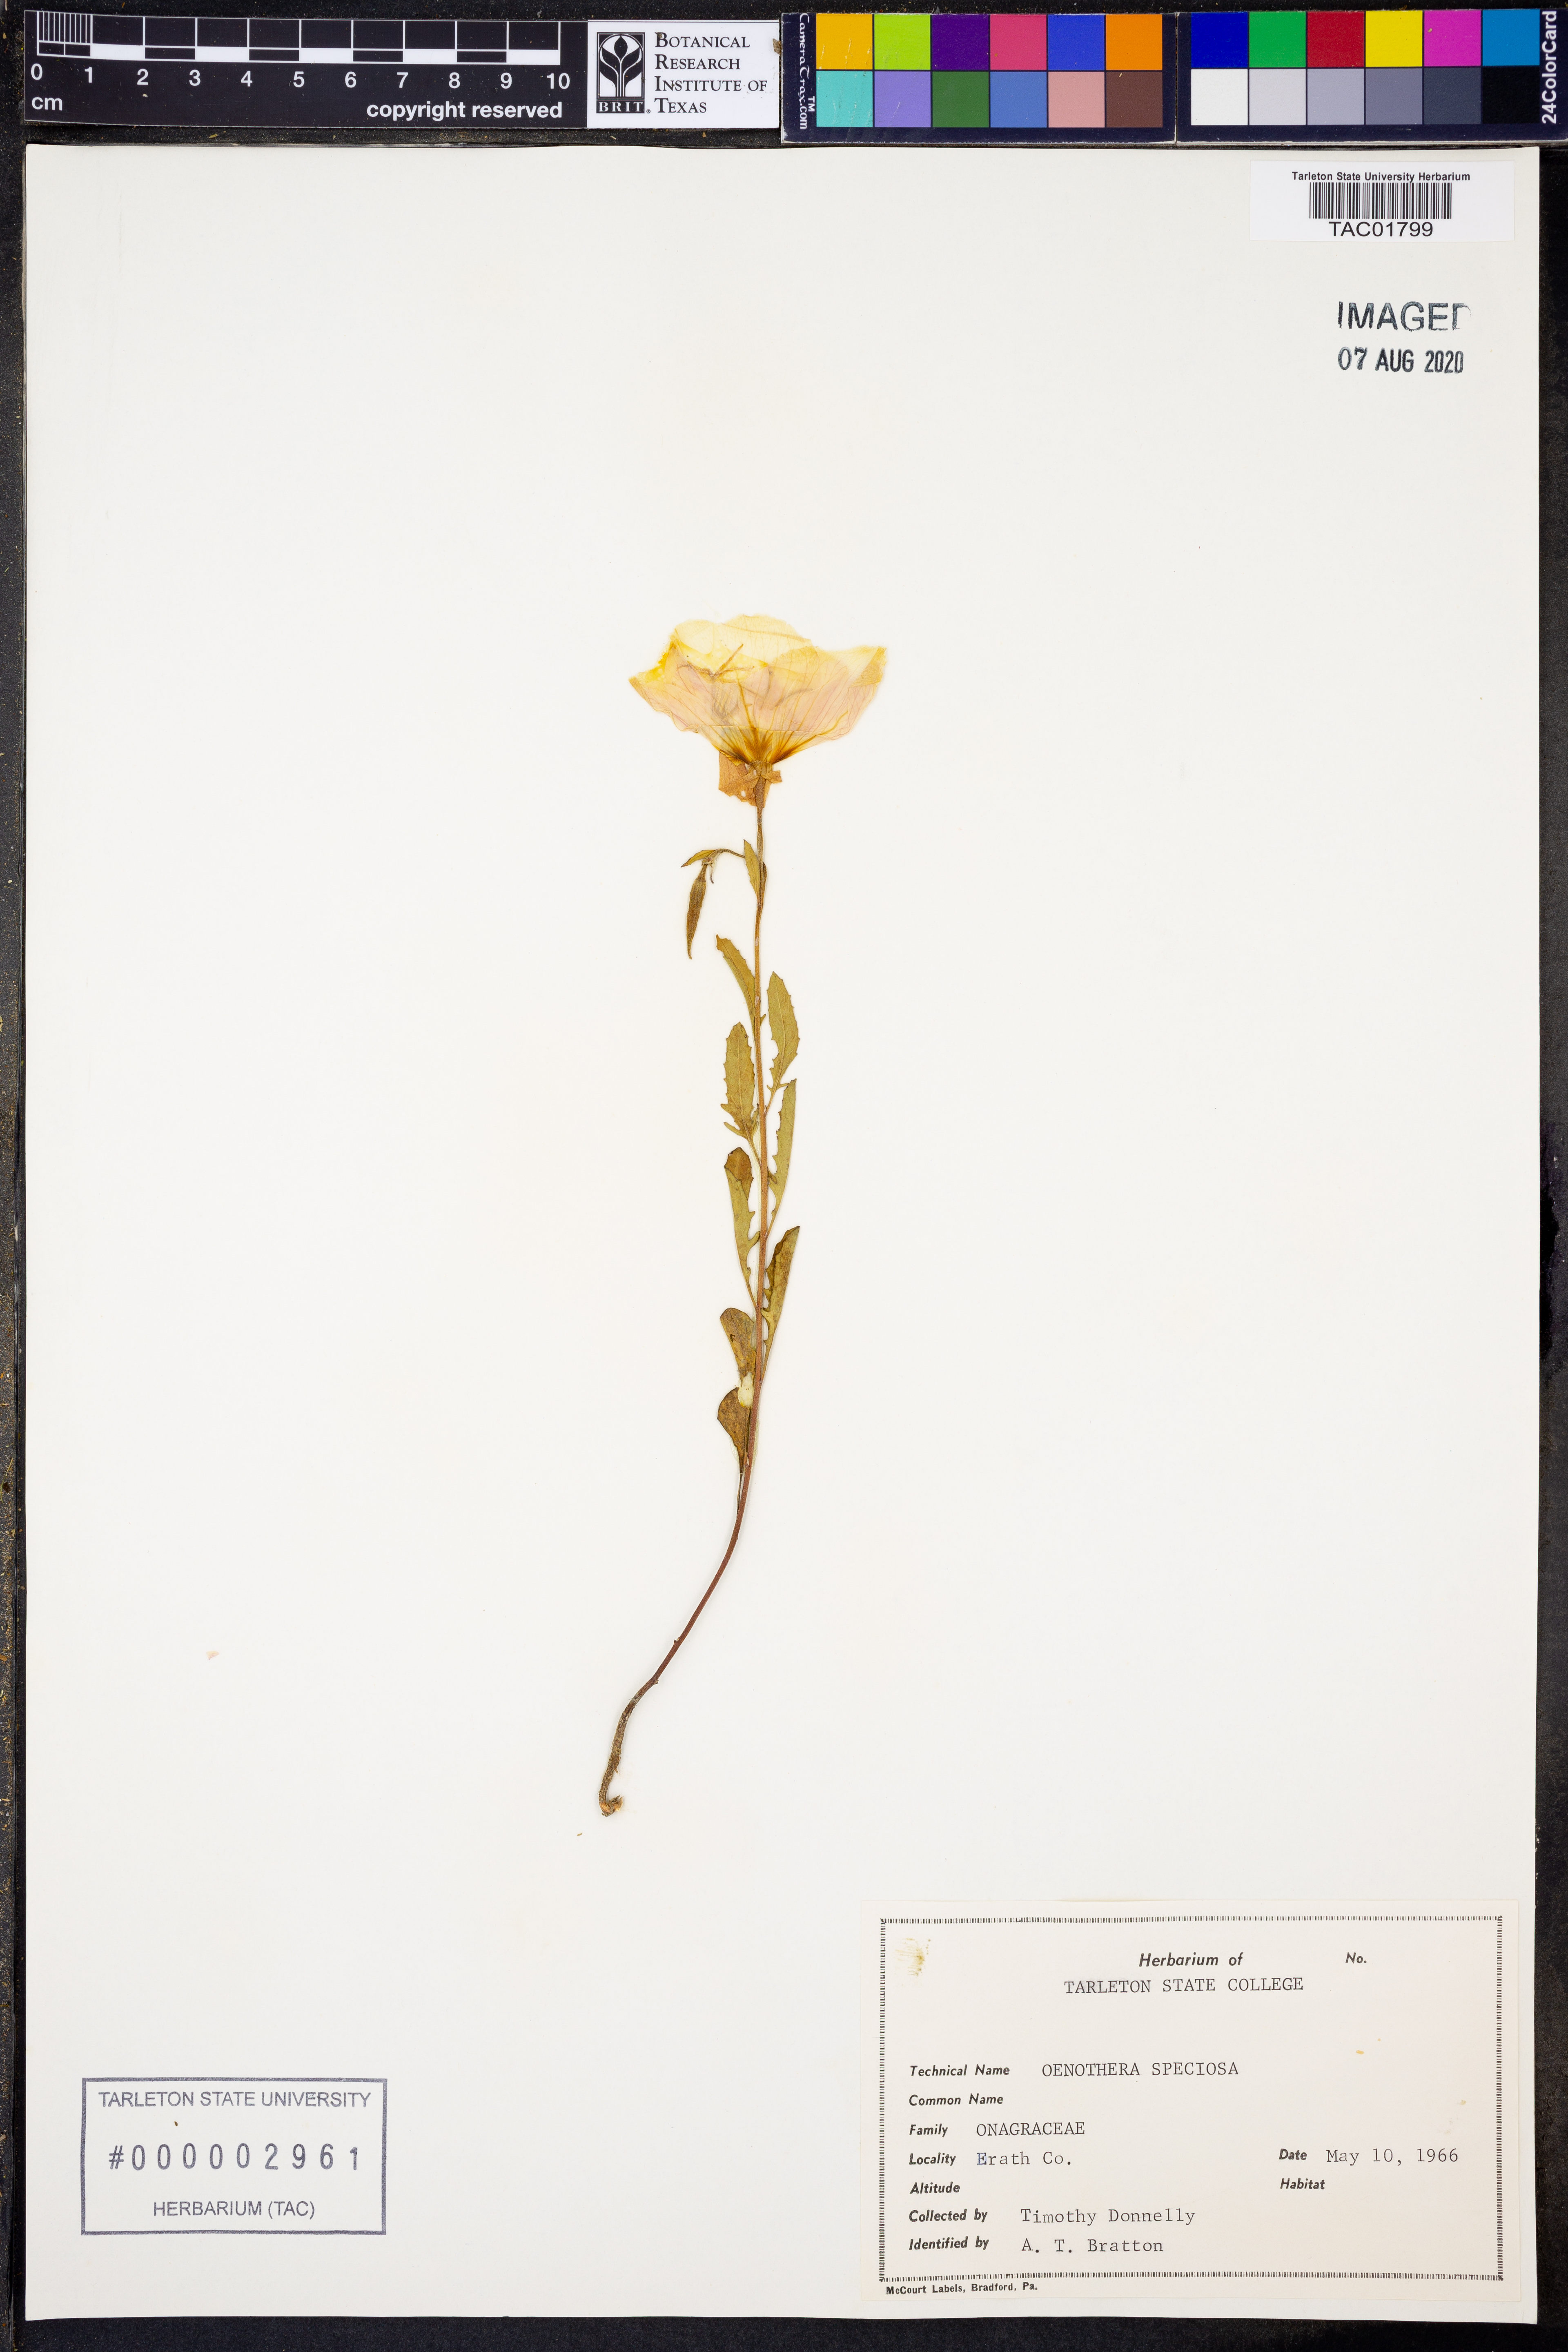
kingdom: Plantae
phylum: Tracheophyta
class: Magnoliopsida
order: Myrtales
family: Onagraceae
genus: Oenothera
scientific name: Oenothera speciosa
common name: White evening-primrose
